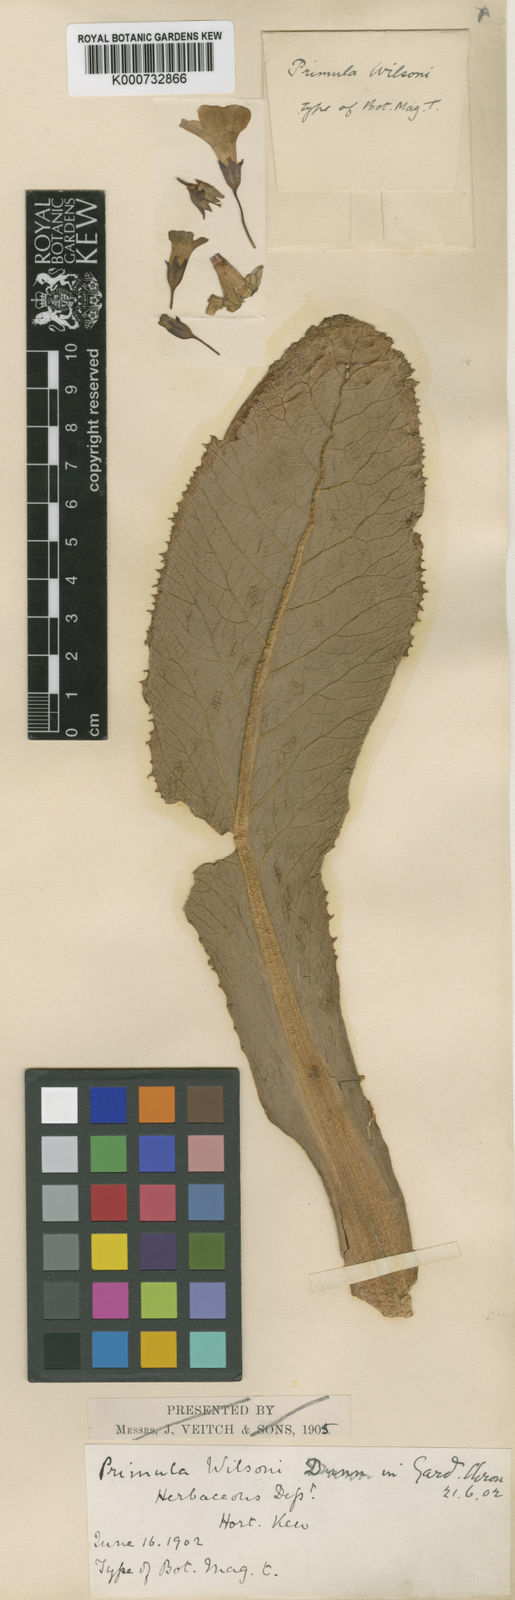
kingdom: Plantae
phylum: Tracheophyta
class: Magnoliopsida
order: Ericales
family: Primulaceae
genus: Primula
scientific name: Primula poissonii
